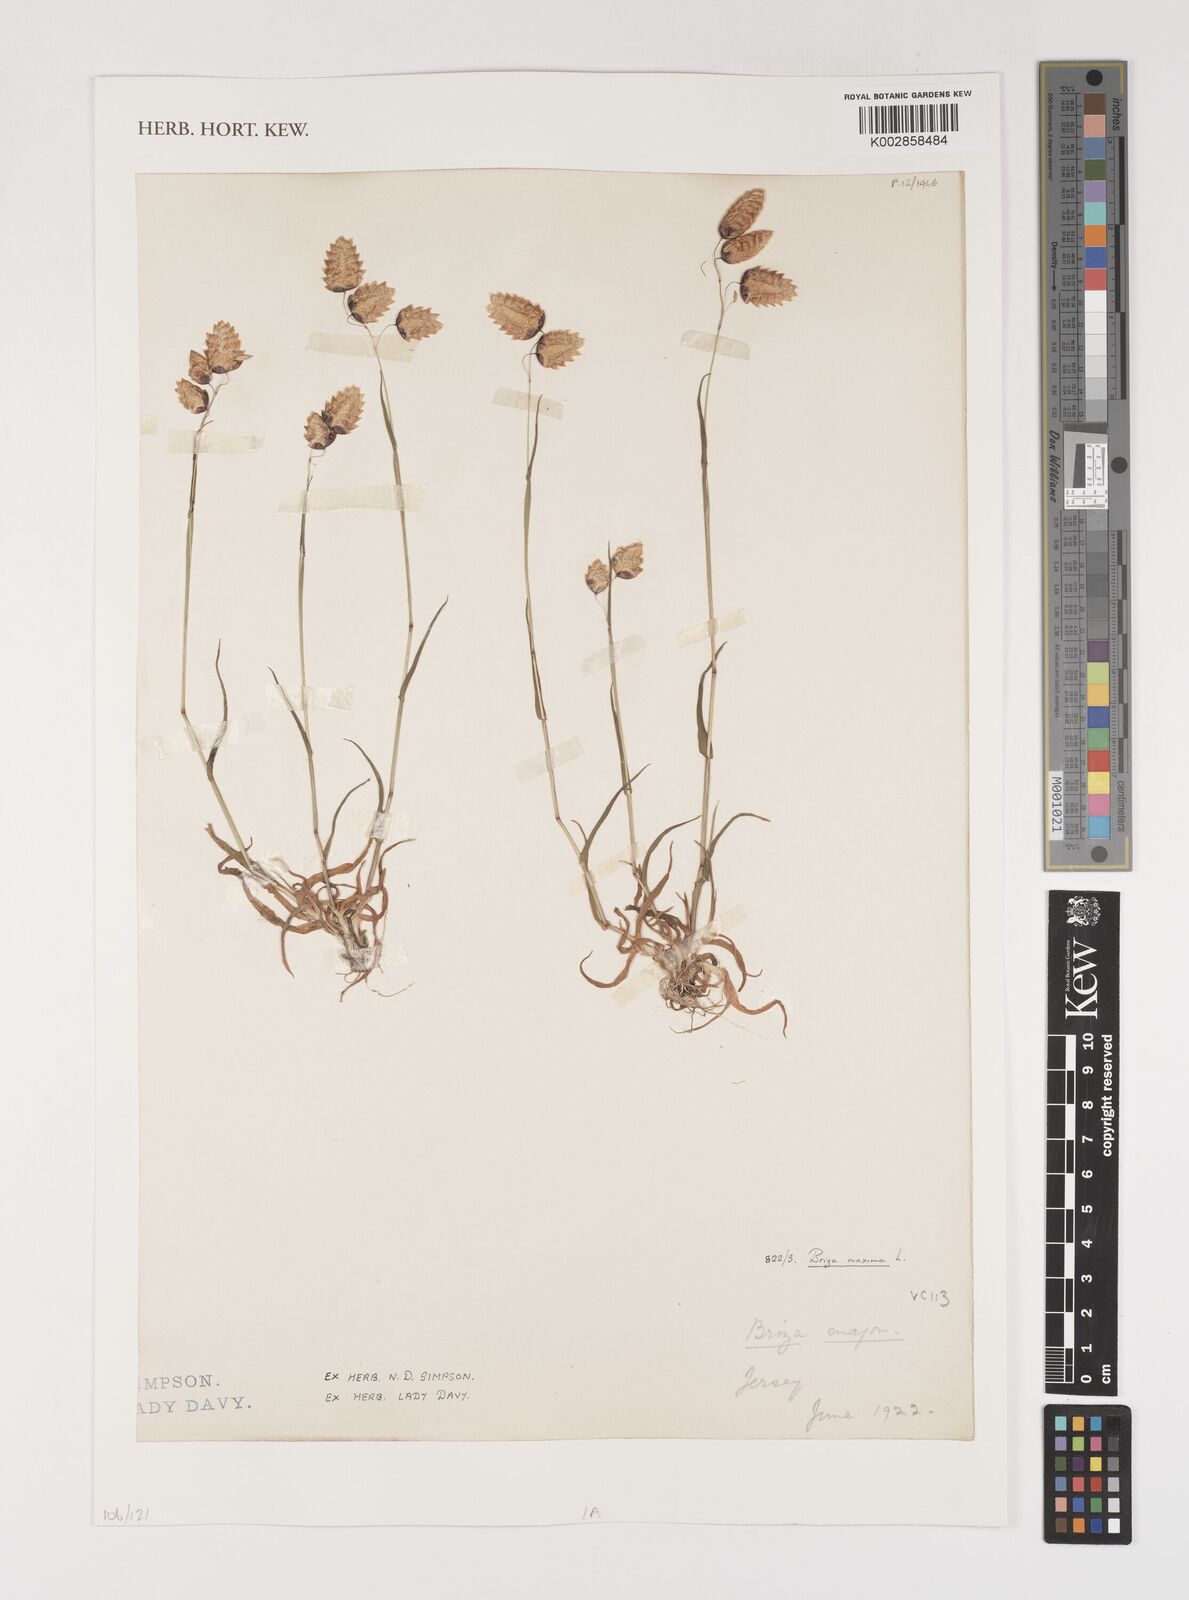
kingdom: Plantae
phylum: Tracheophyta
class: Liliopsida
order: Poales
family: Poaceae
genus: Briza
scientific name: Briza maxima
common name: Big quakinggrass
